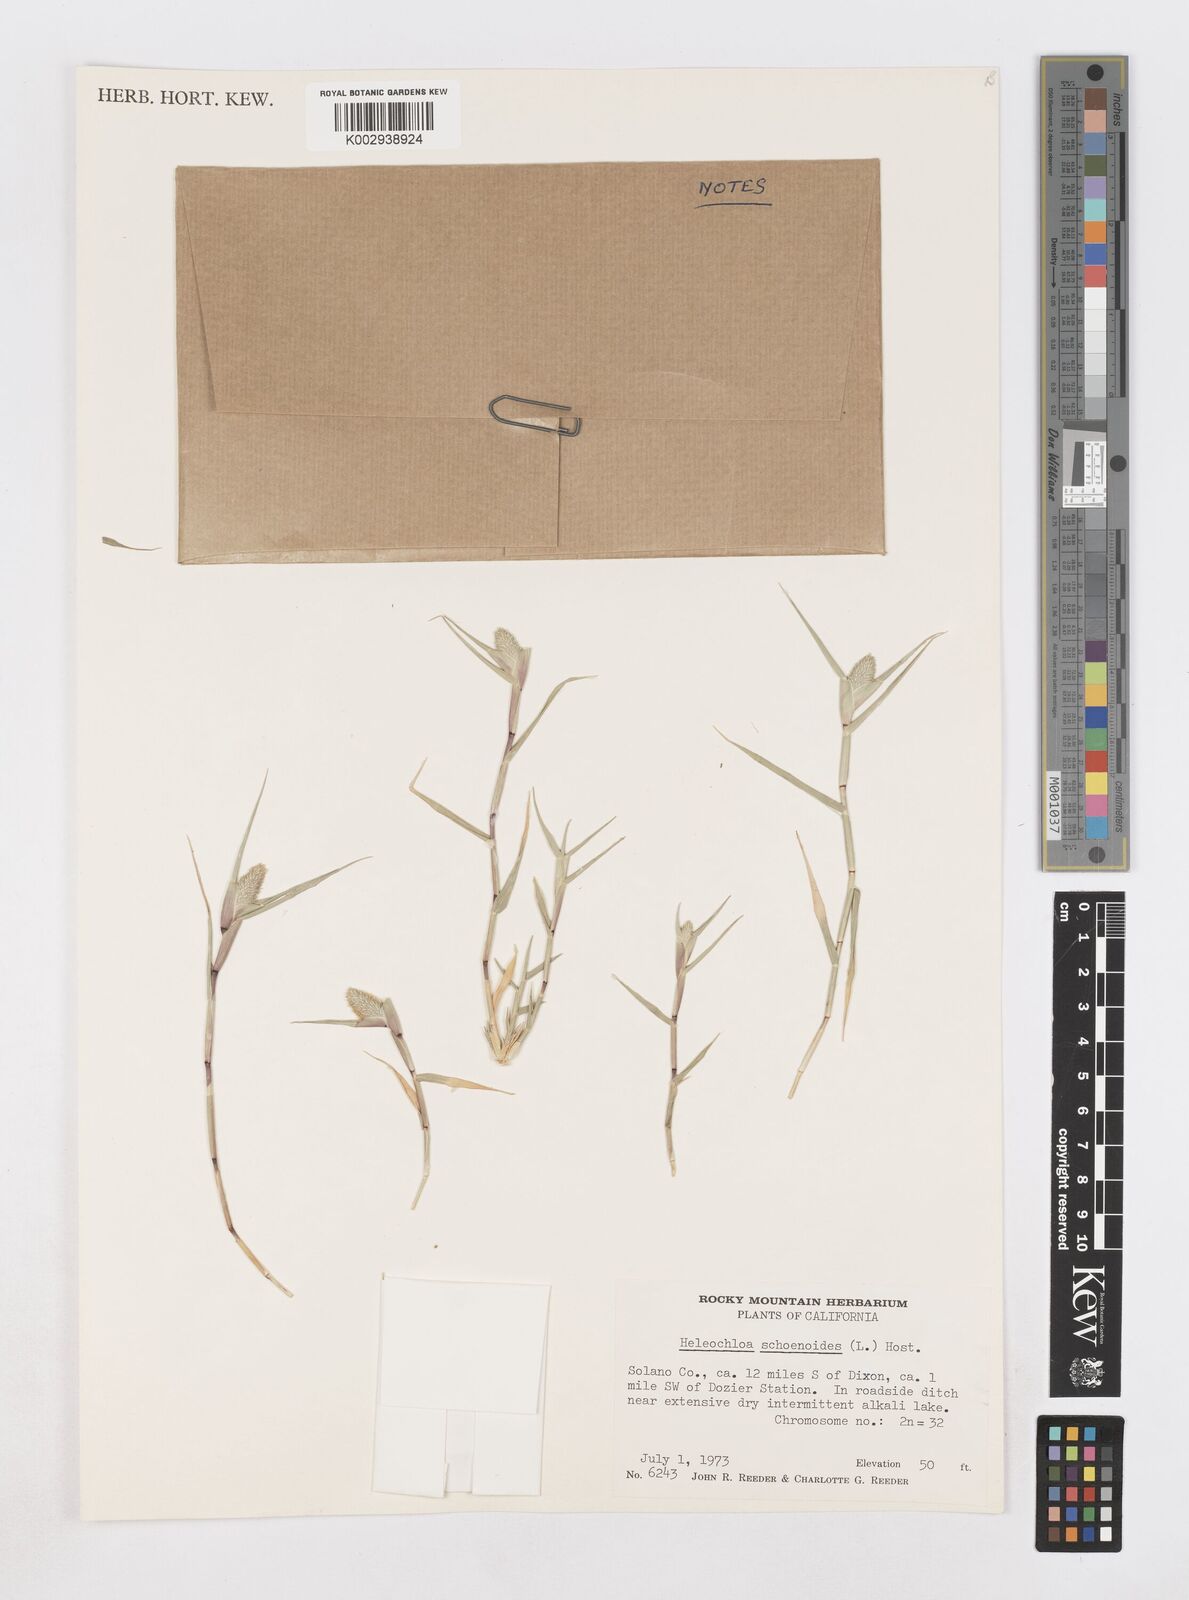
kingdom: Animalia
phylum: Arthropoda
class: Insecta
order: Coleoptera
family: Tenebrionidae
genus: Crypsis
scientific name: Crypsis
